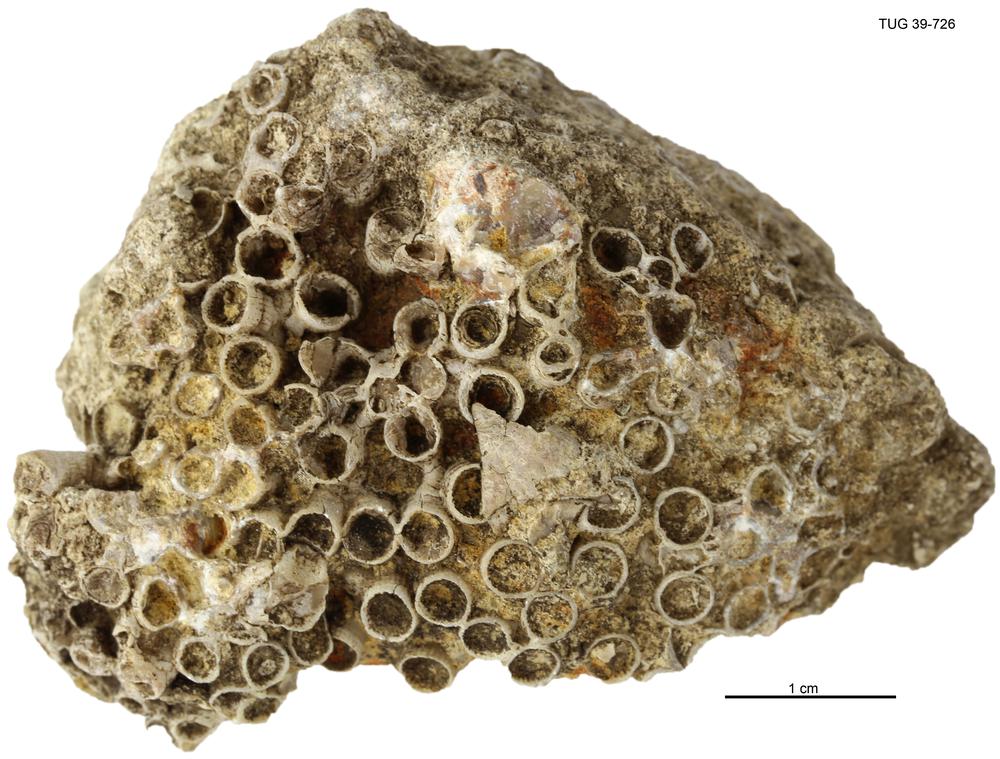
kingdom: Animalia
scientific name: Animalia
